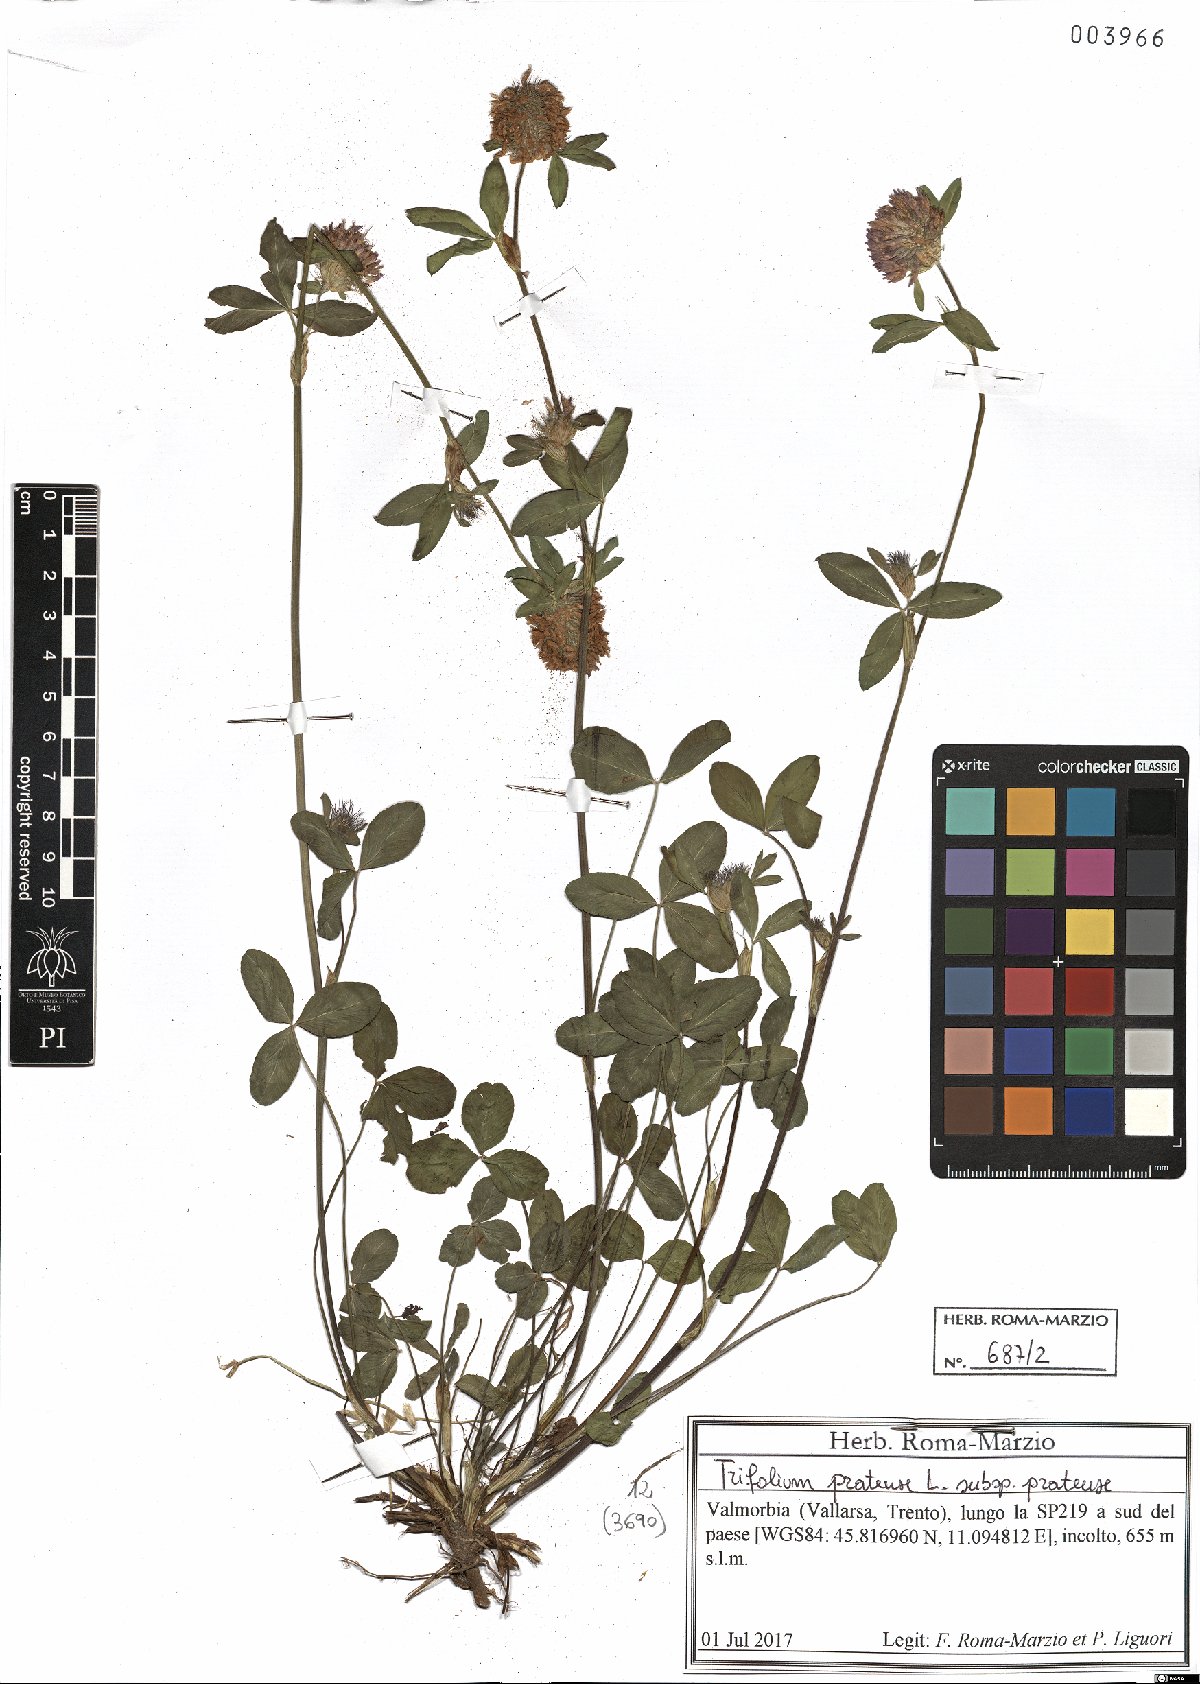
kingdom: Plantae
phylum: Tracheophyta
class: Magnoliopsida
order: Fabales
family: Fabaceae
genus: Trifolium
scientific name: Trifolium pratense
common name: Red clover
